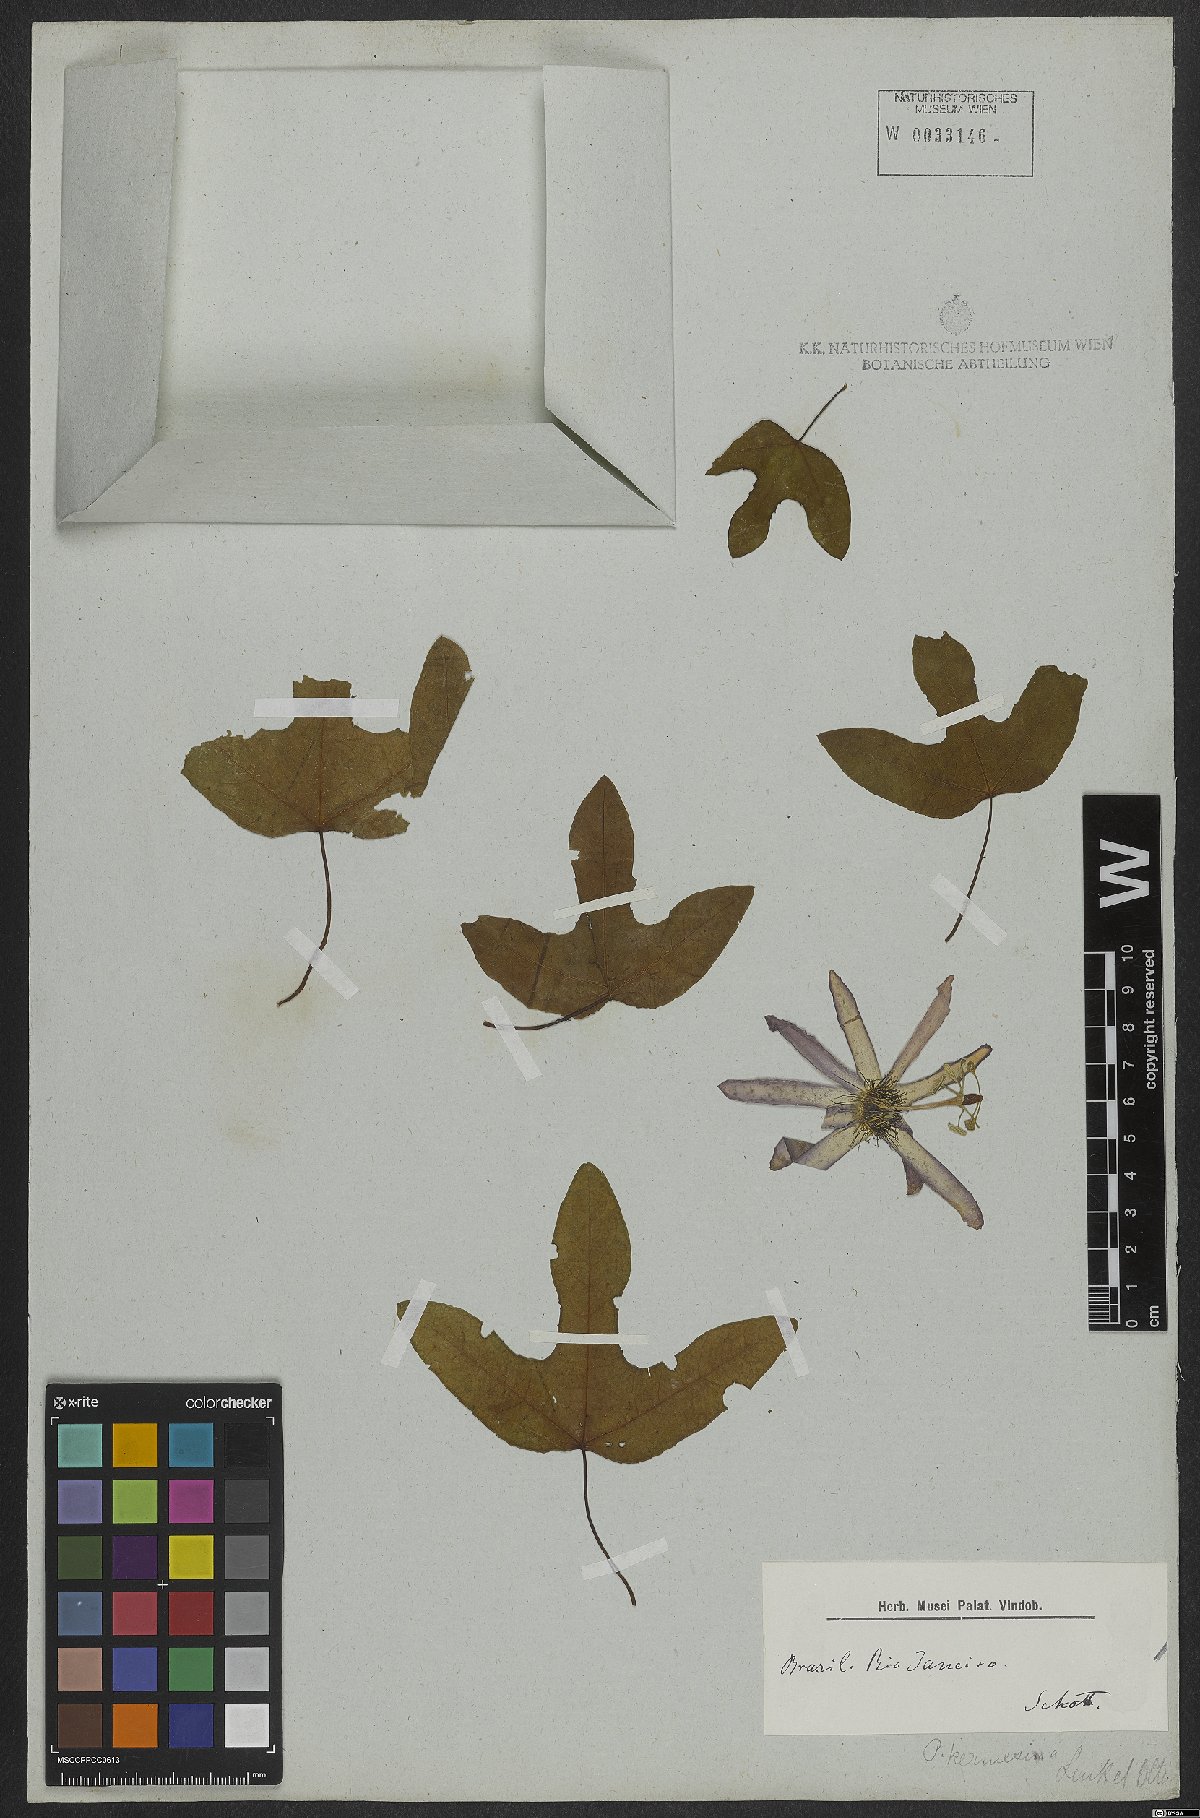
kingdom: Plantae
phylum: Tracheophyta
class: Magnoliopsida
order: Malpighiales
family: Passifloraceae
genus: Passiflora
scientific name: Passiflora kermesina
